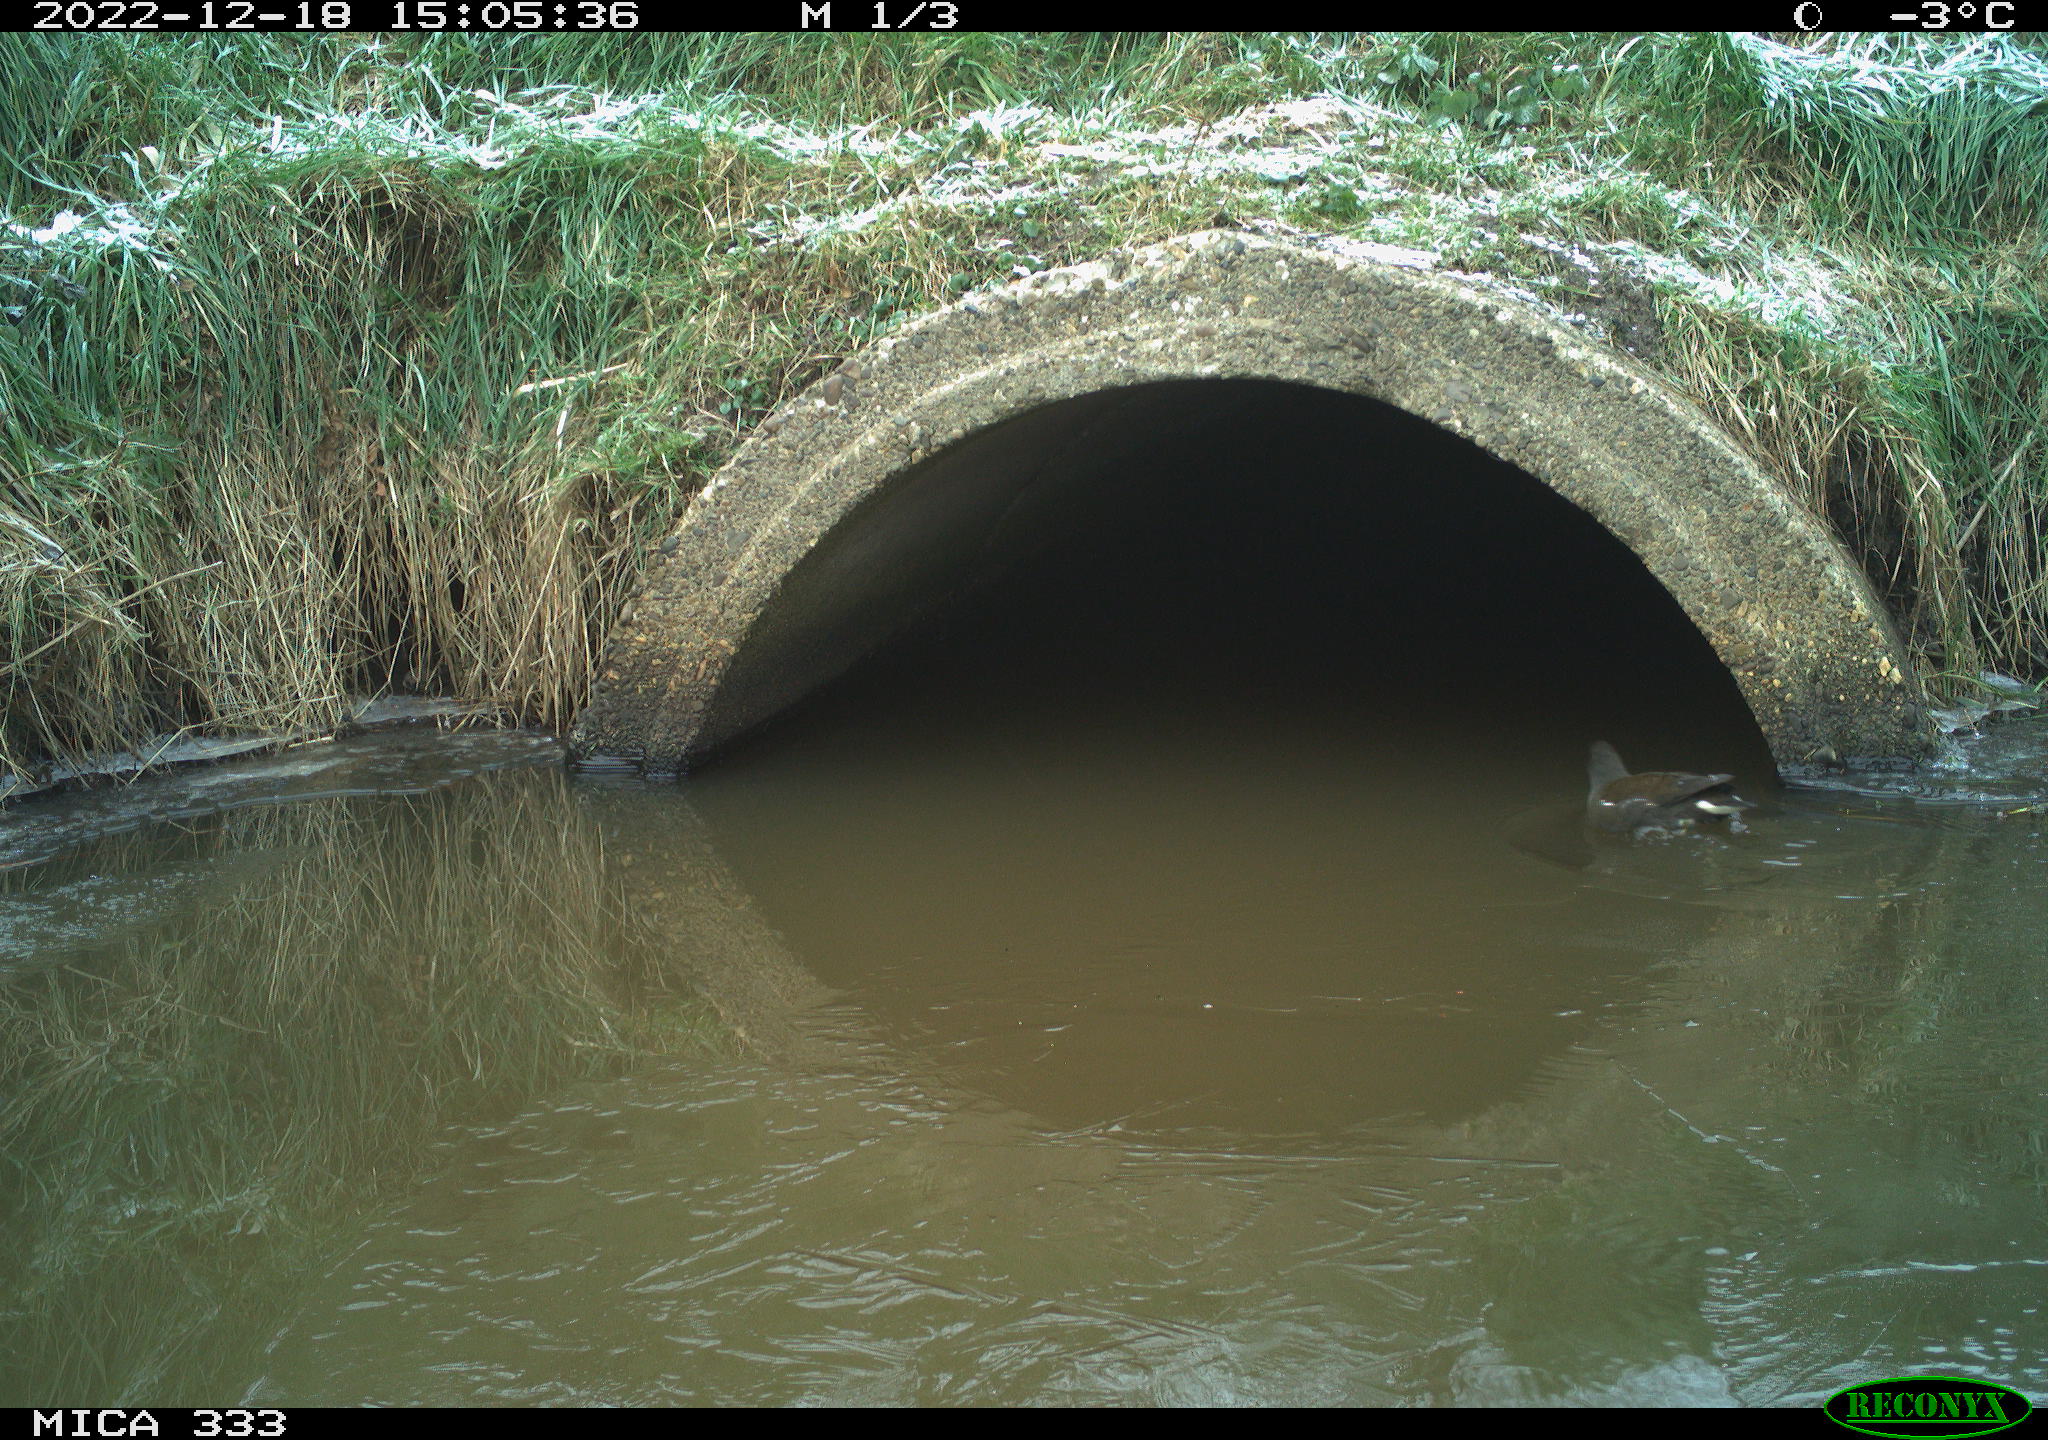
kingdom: Animalia
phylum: Chordata
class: Aves
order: Gruiformes
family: Rallidae
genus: Gallinula
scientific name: Gallinula chloropus
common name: Common moorhen
